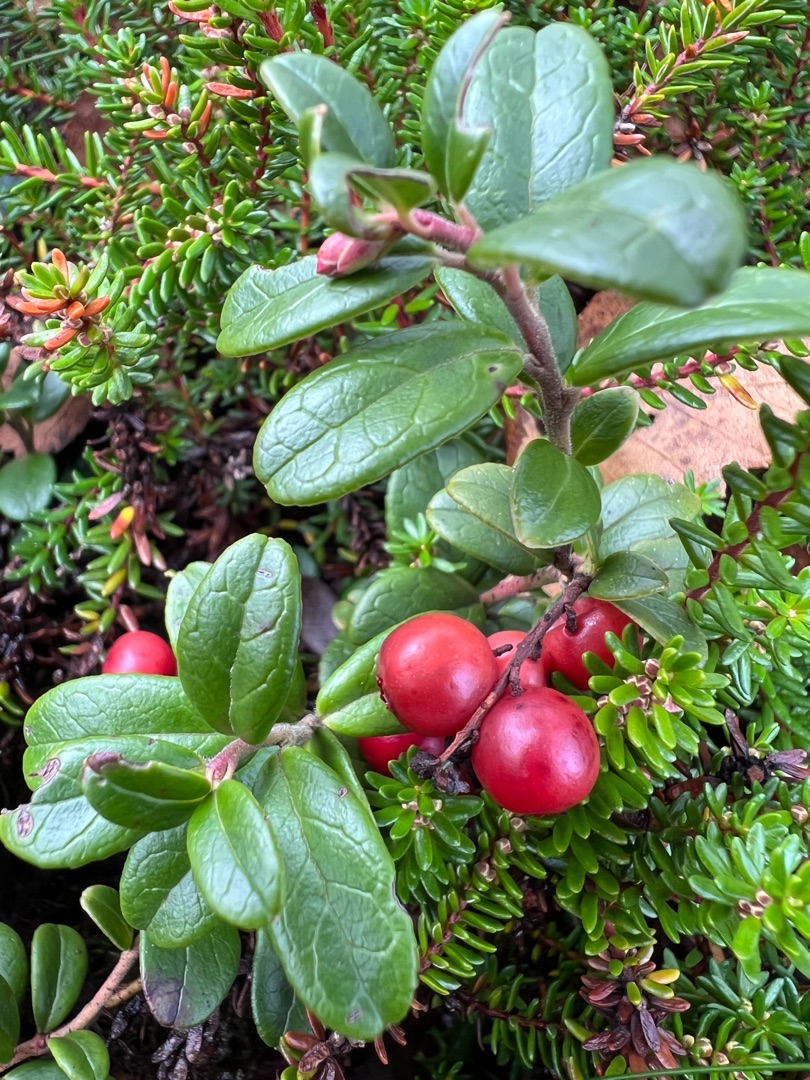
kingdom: Plantae
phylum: Tracheophyta
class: Magnoliopsida
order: Ericales
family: Ericaceae
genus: Vaccinium
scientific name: Vaccinium vitis-idaea
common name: Tyttebær
